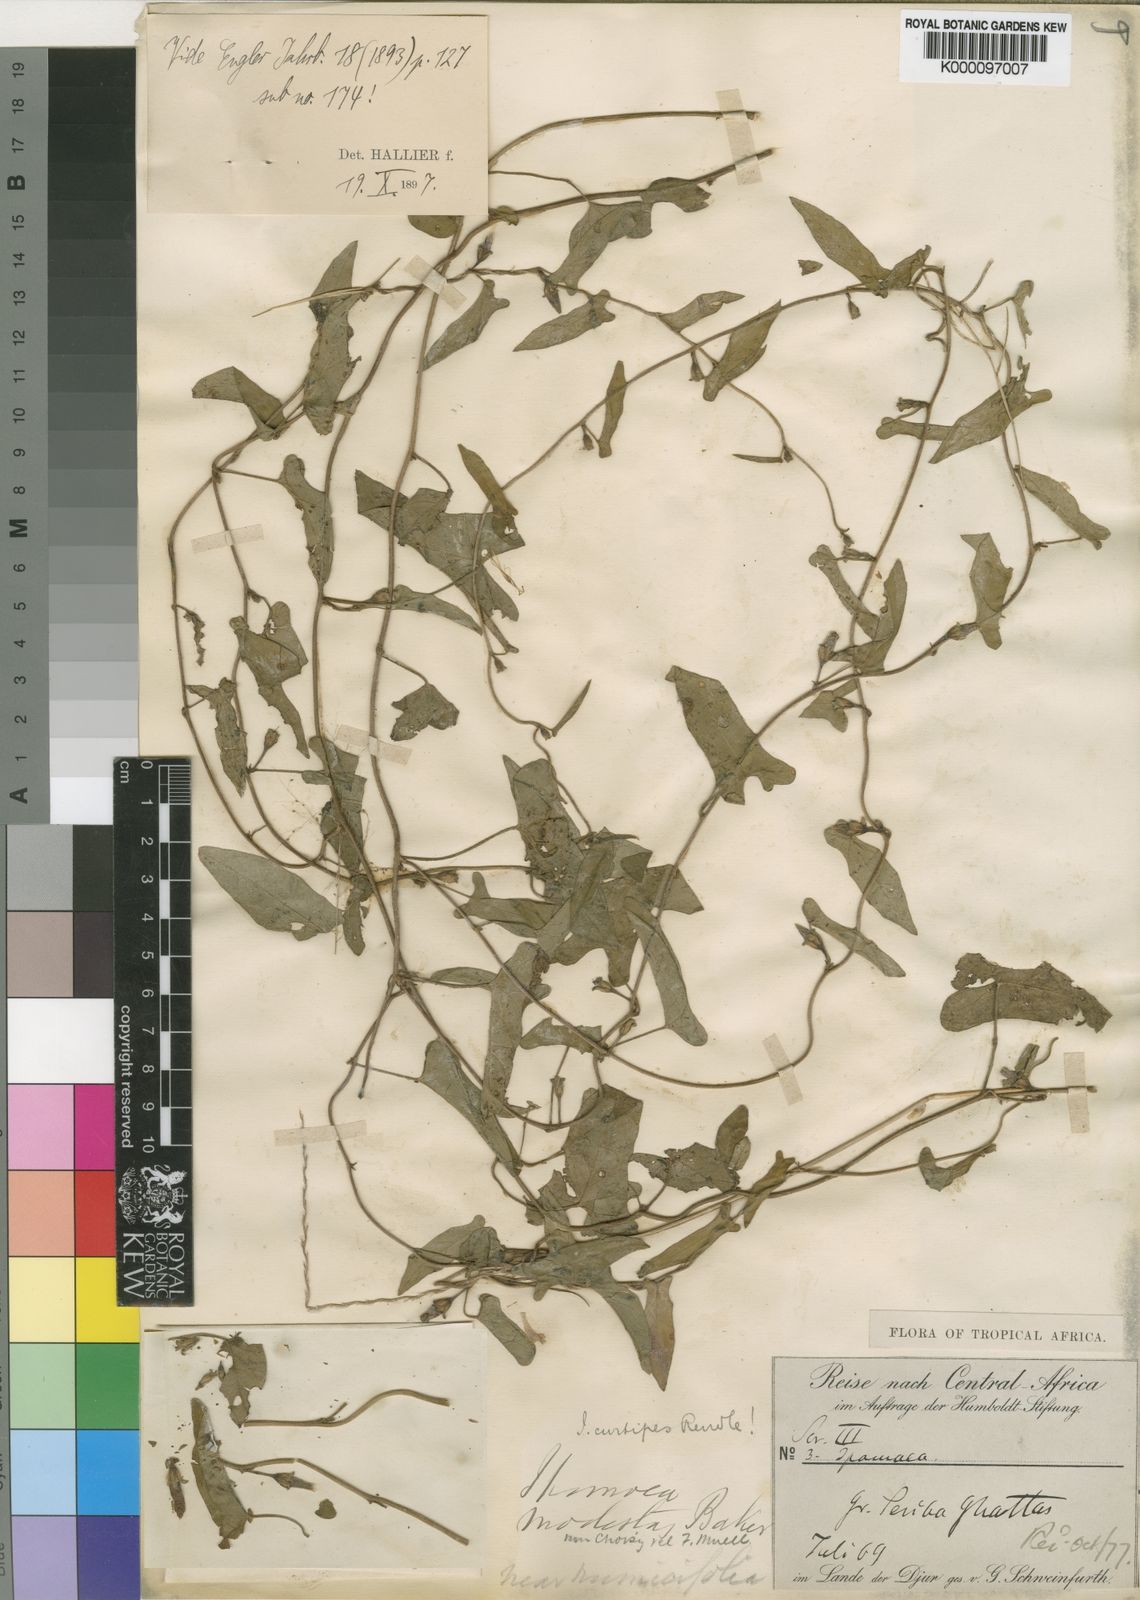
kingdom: Plantae
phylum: Tracheophyta
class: Magnoliopsida
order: Solanales
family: Convolvulaceae
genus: Ipomoea
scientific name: Ipomoea curtipes
